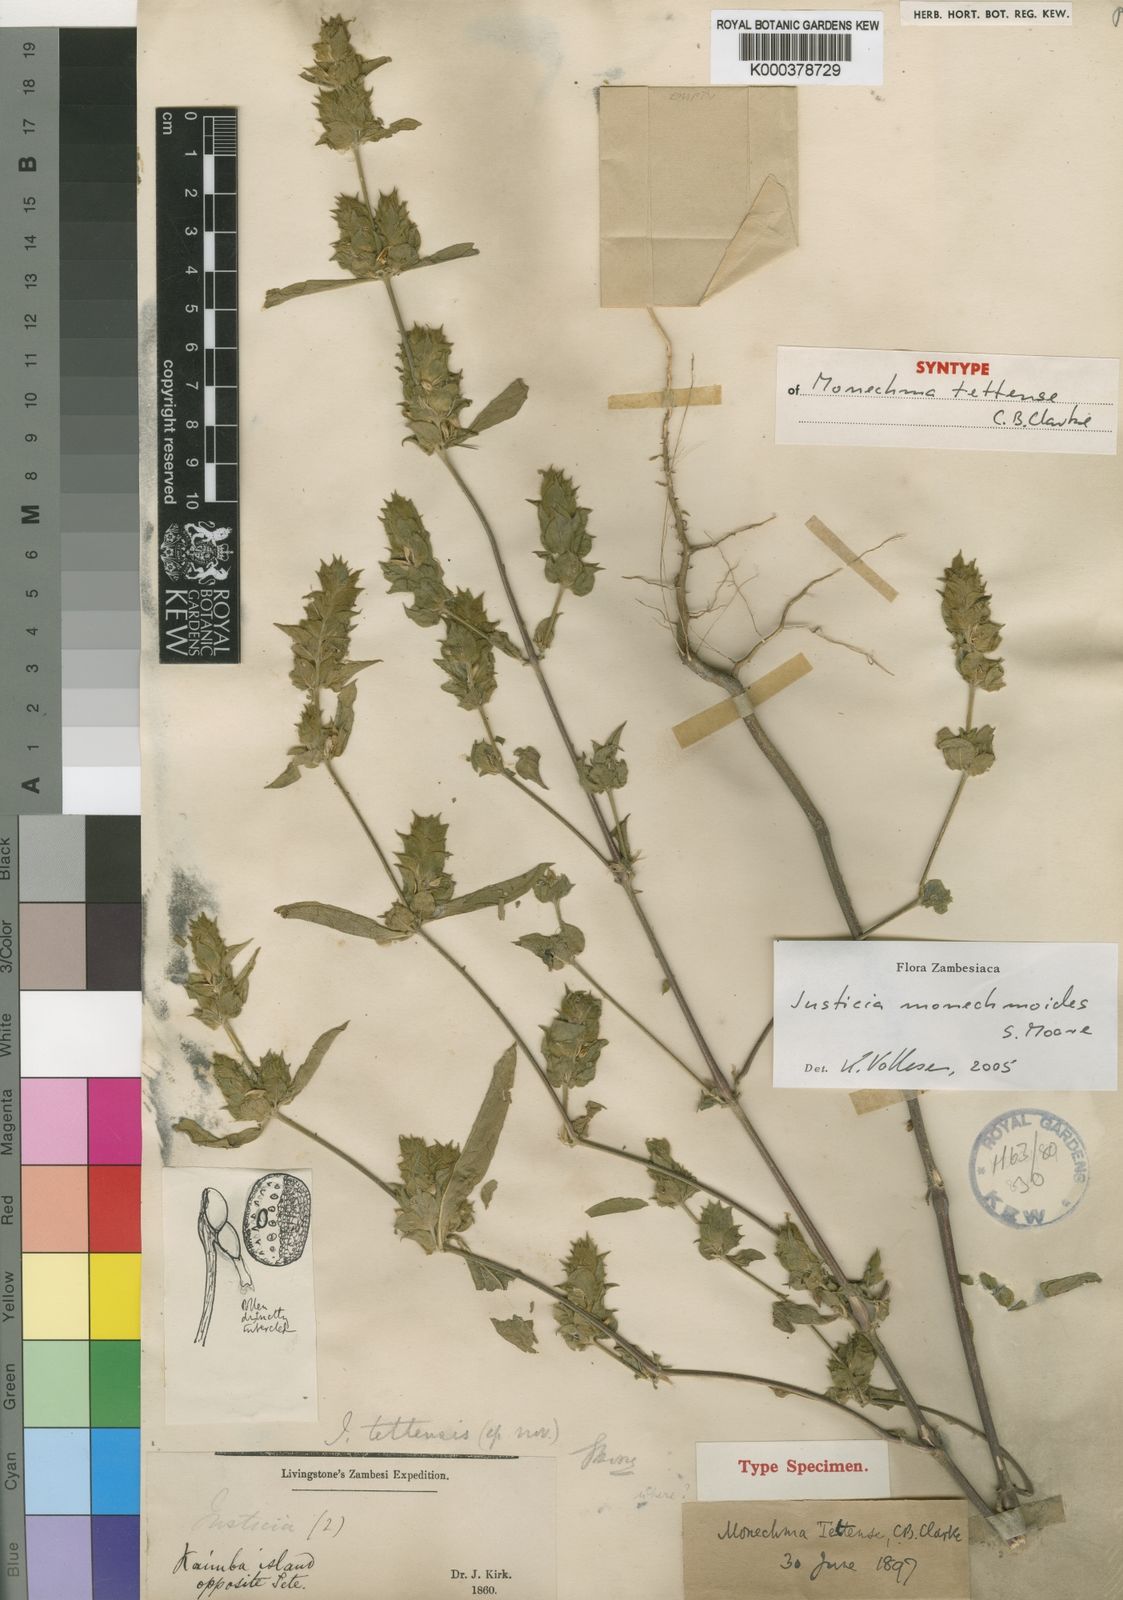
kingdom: Plantae
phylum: Tracheophyta
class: Magnoliopsida
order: Lamiales
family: Acanthaceae
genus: Monechma
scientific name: Monechma monechmoides
